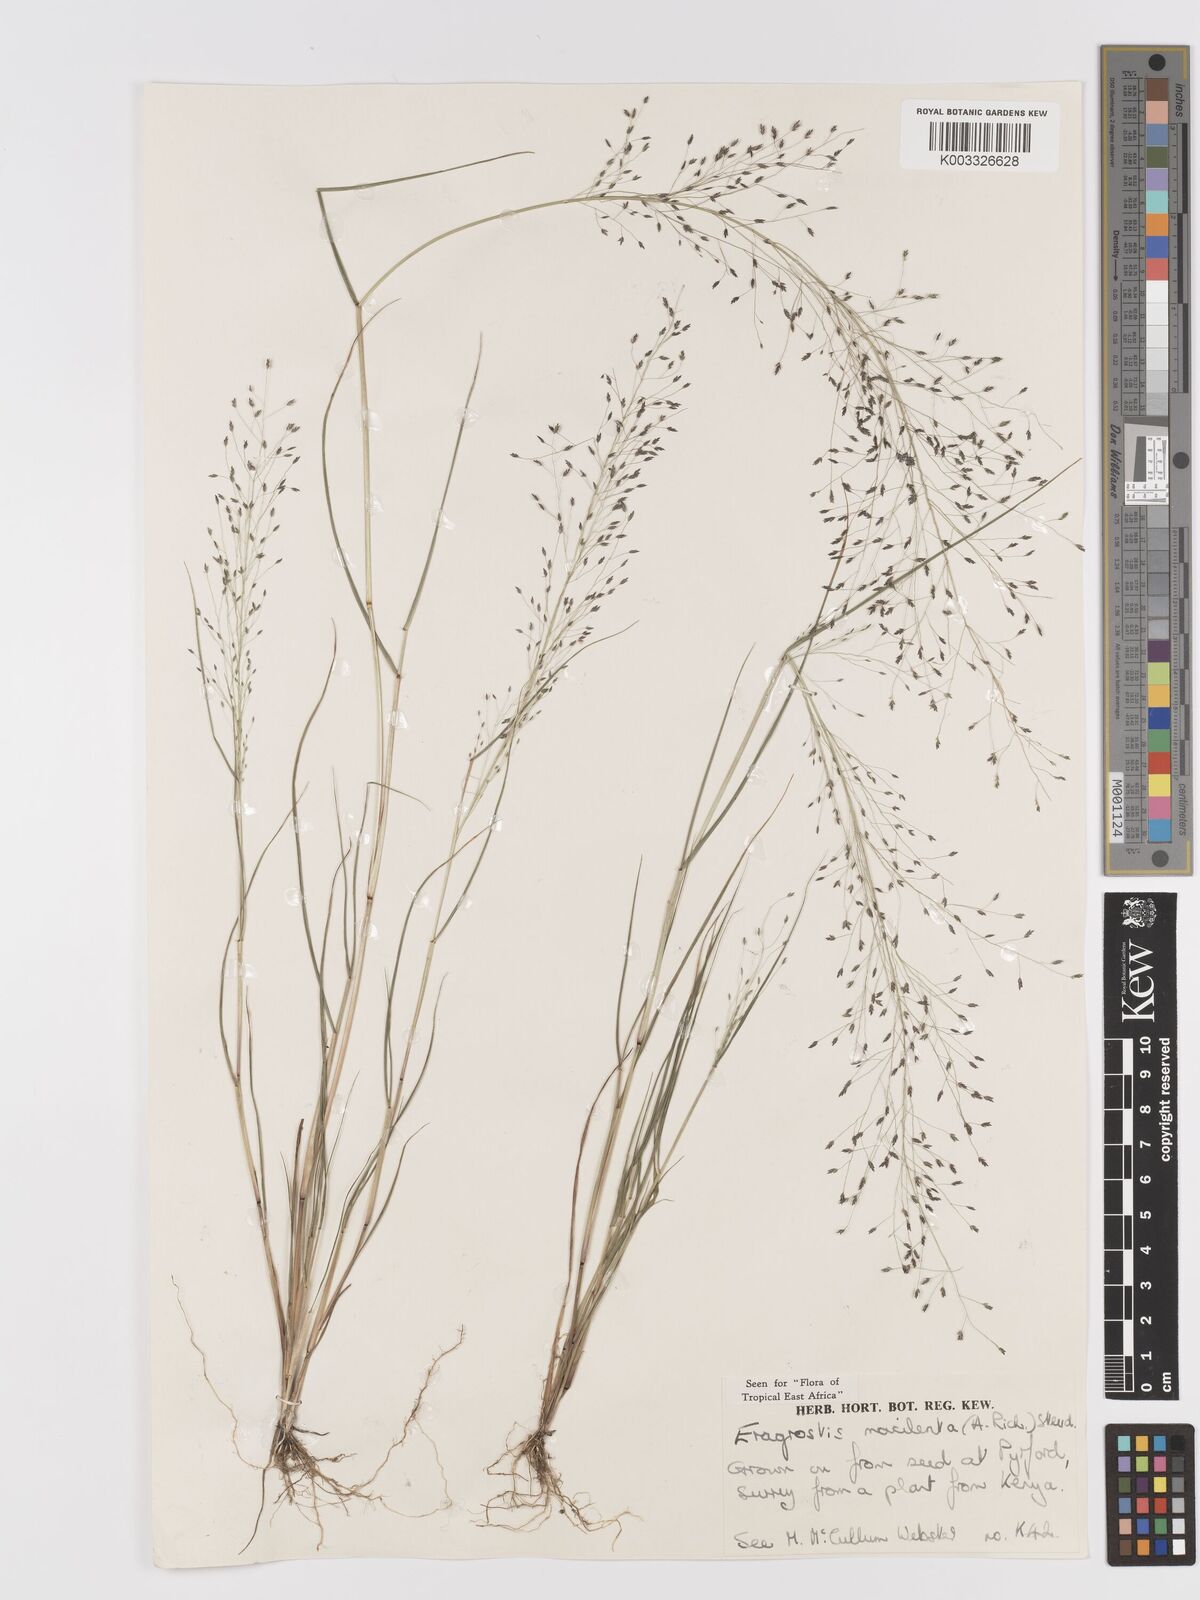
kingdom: Plantae
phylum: Tracheophyta
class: Liliopsida
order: Poales
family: Poaceae
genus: Eragrostis
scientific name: Eragrostis macilenta
